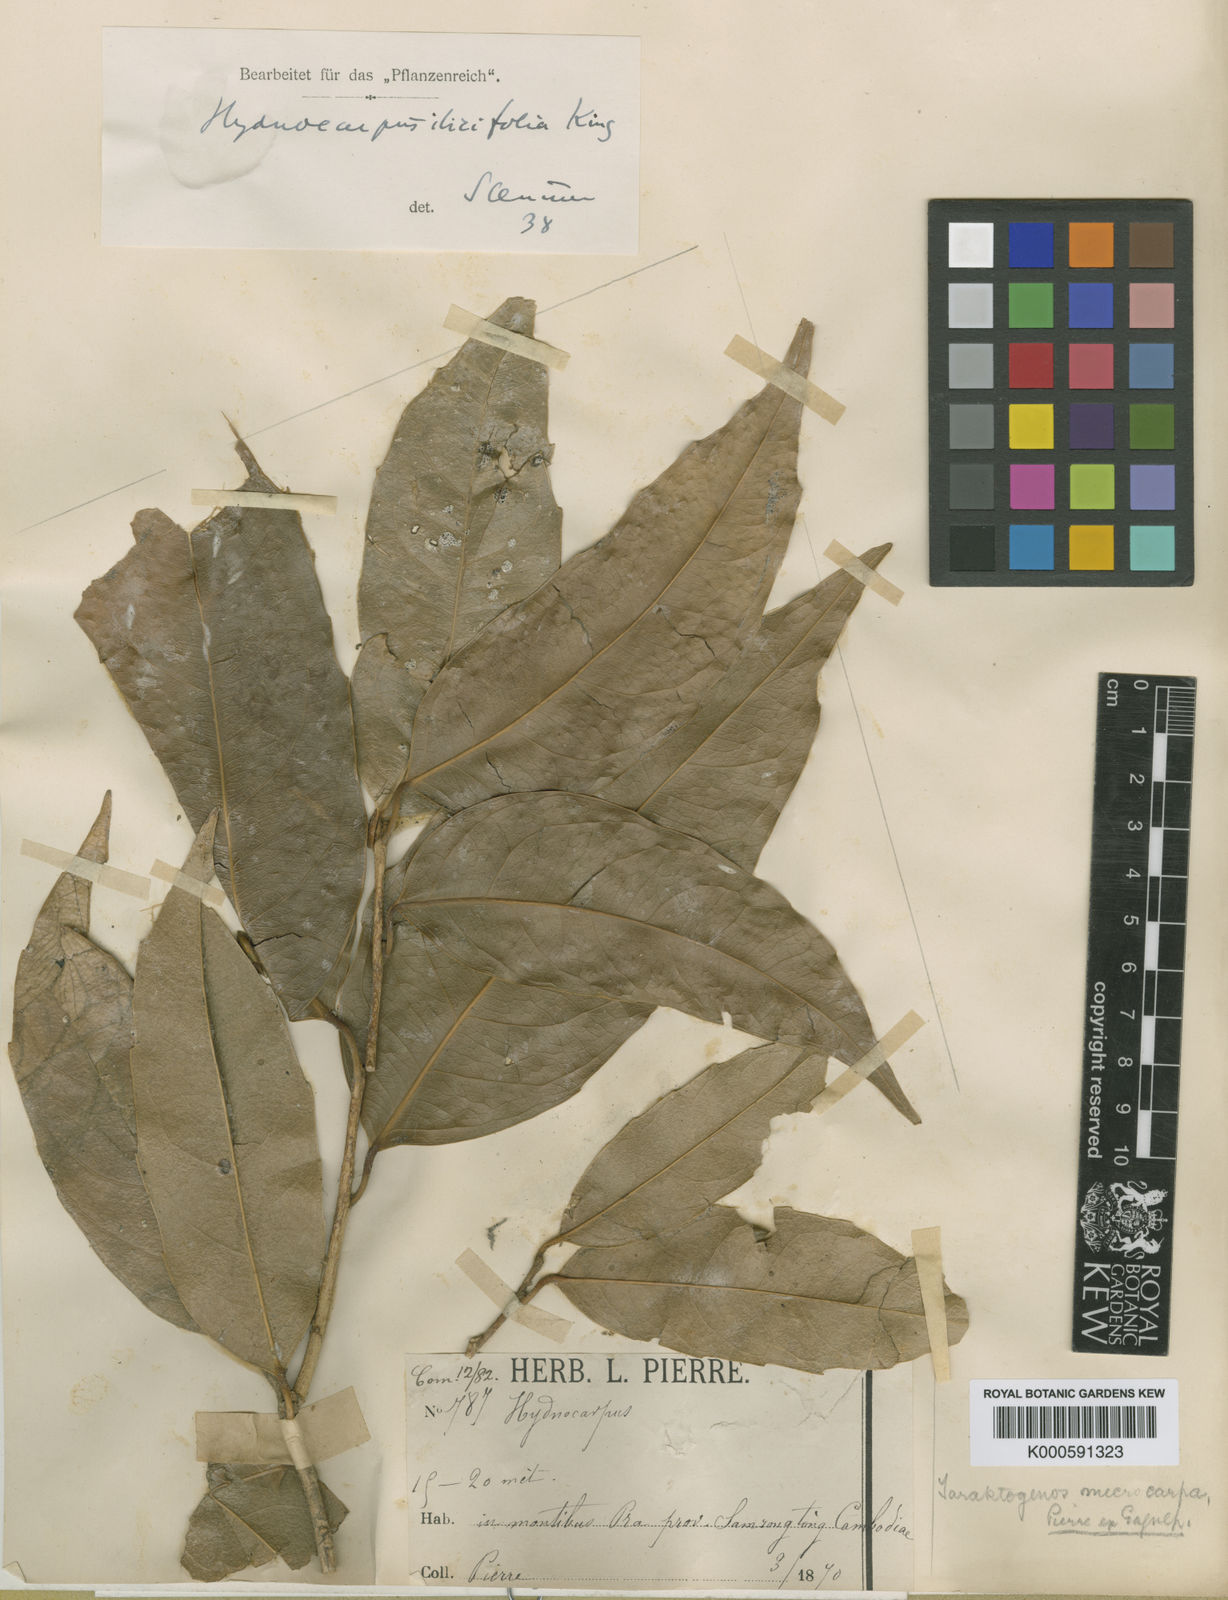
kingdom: Plantae
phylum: Tracheophyta
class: Magnoliopsida
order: Malpighiales
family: Achariaceae
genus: Hydnocarpus
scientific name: Hydnocarpus ilicifolius
